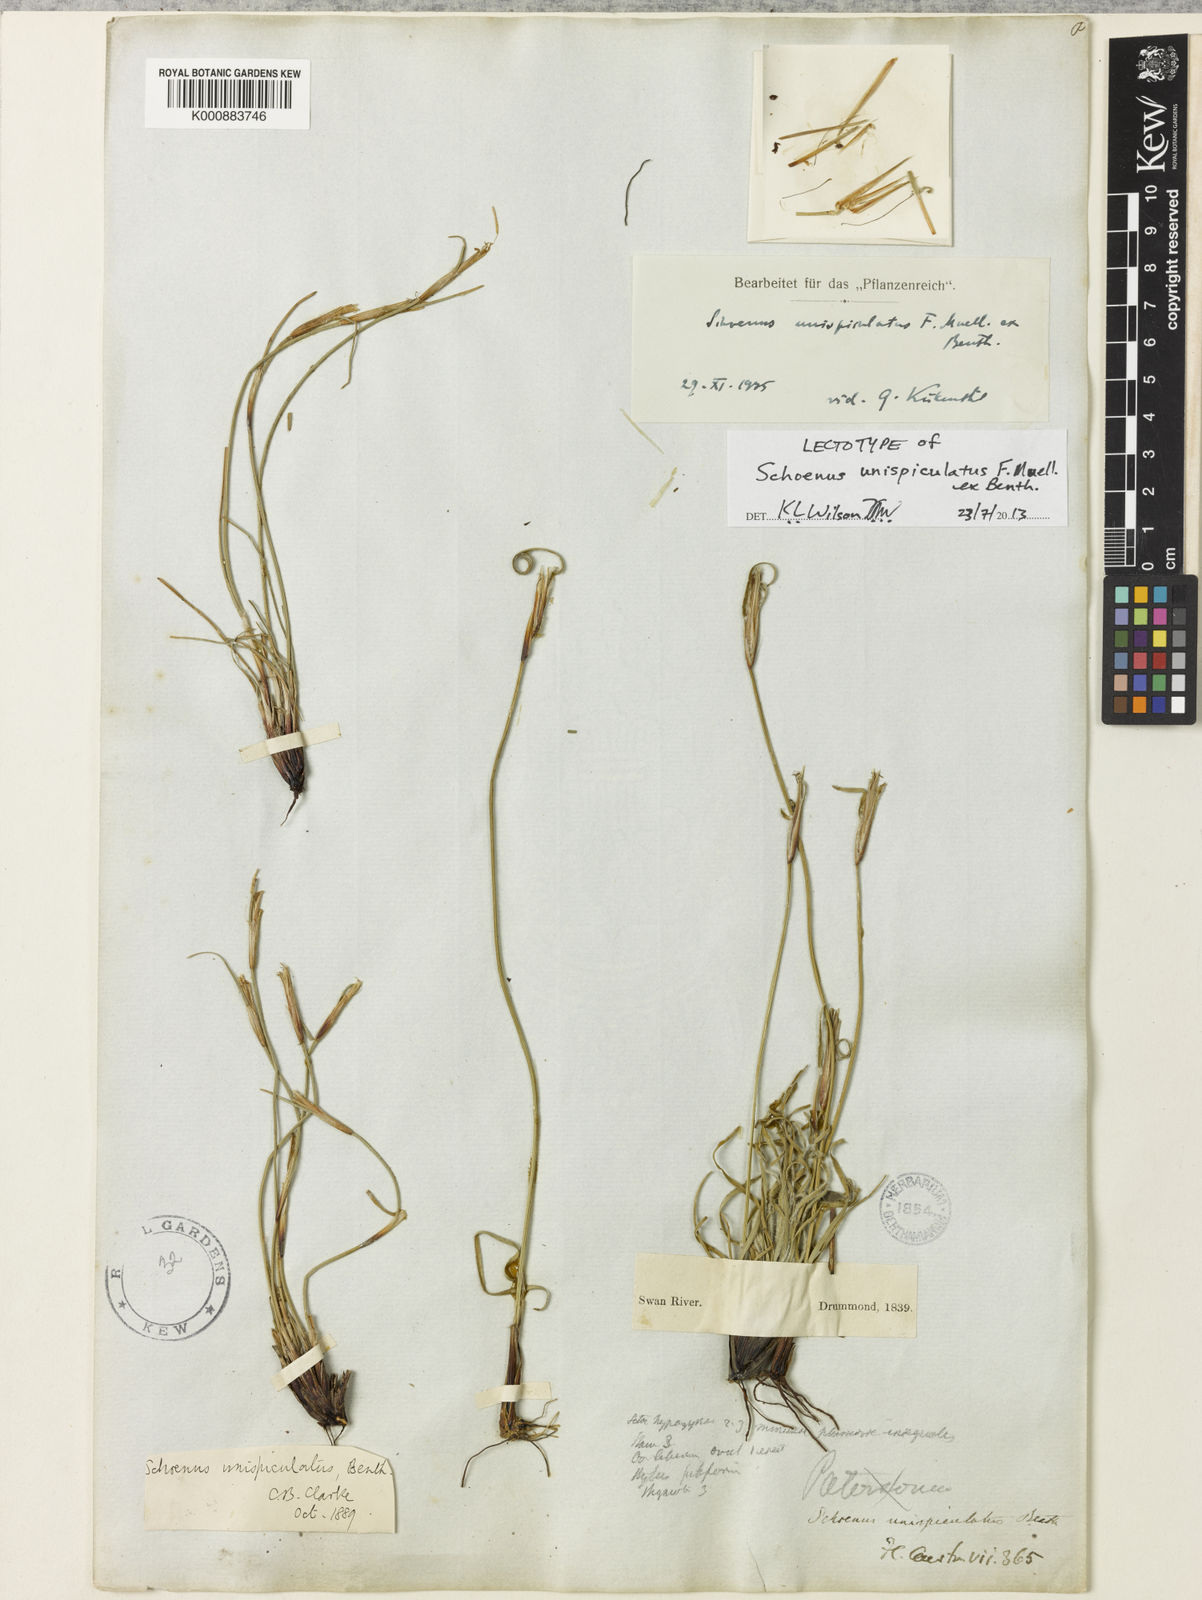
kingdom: Plantae
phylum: Tracheophyta
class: Liliopsida
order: Poales
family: Cyperaceae
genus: Schoenus
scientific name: Schoenus unispiculatus
